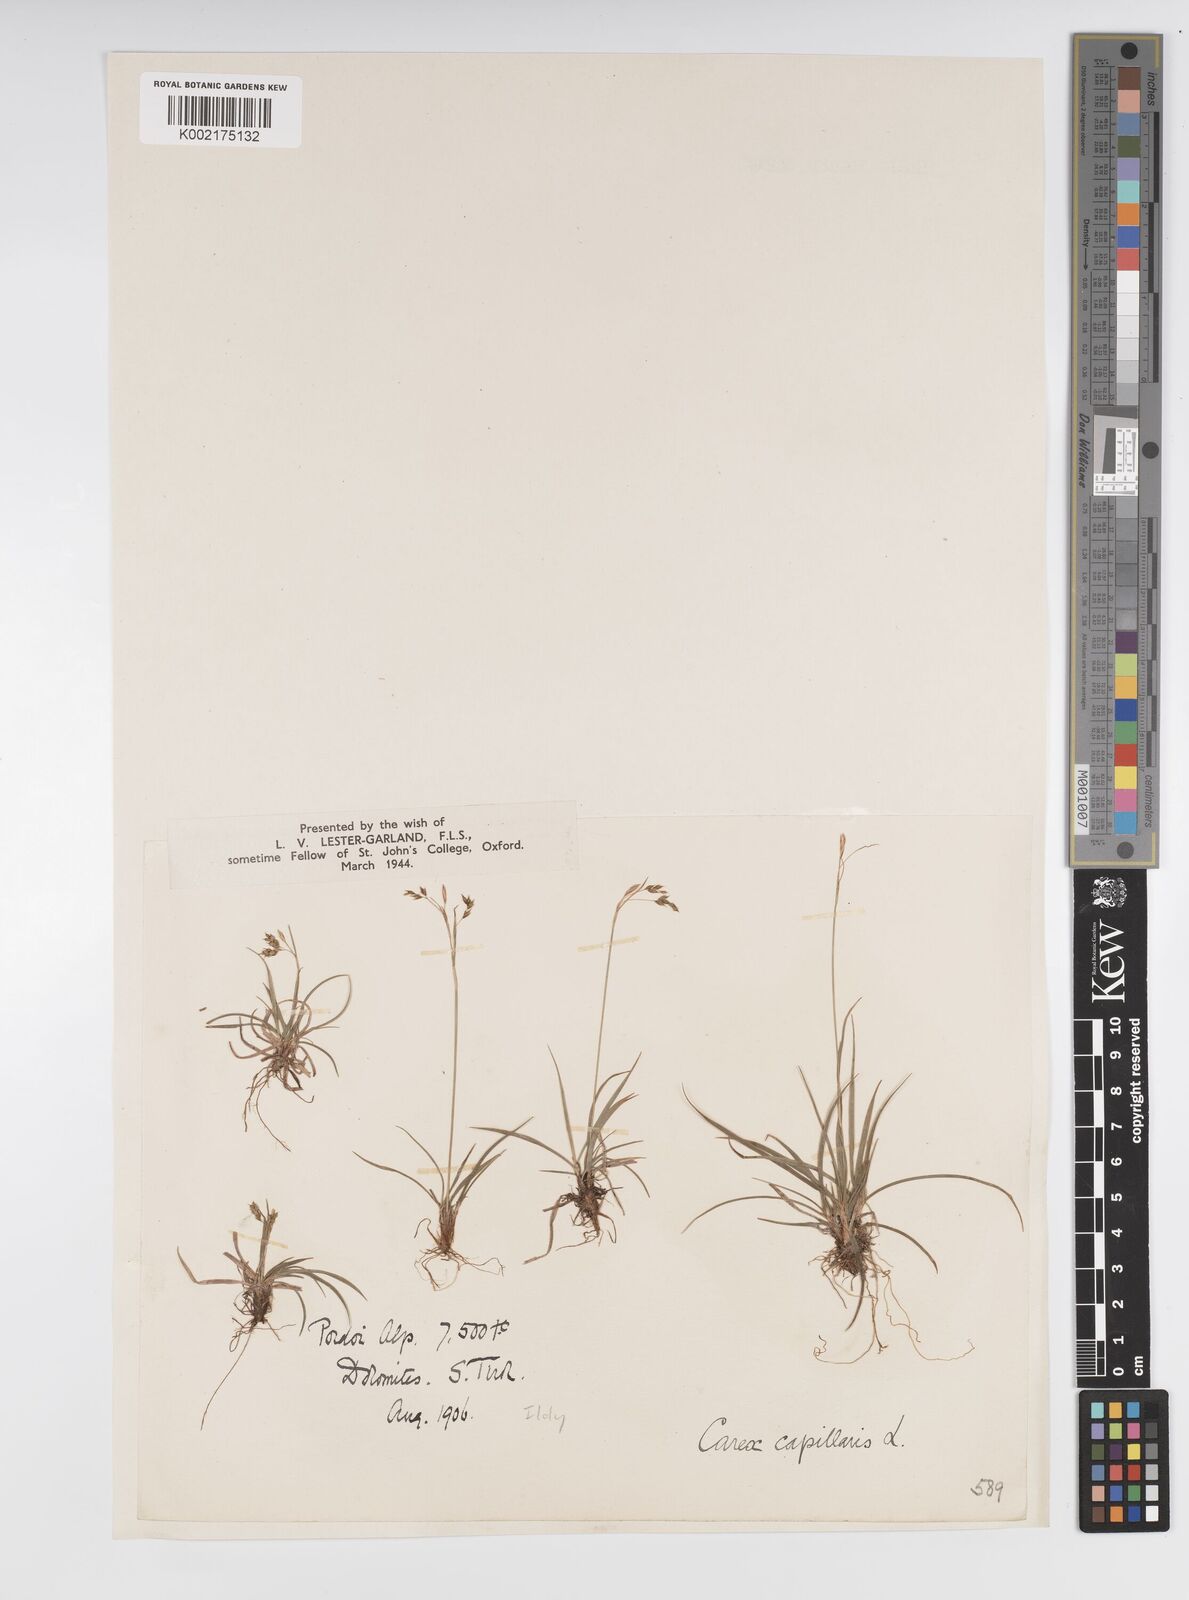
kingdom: Plantae
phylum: Tracheophyta
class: Liliopsida
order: Poales
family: Cyperaceae
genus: Carex
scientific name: Carex capillaris
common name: Hair sedge
